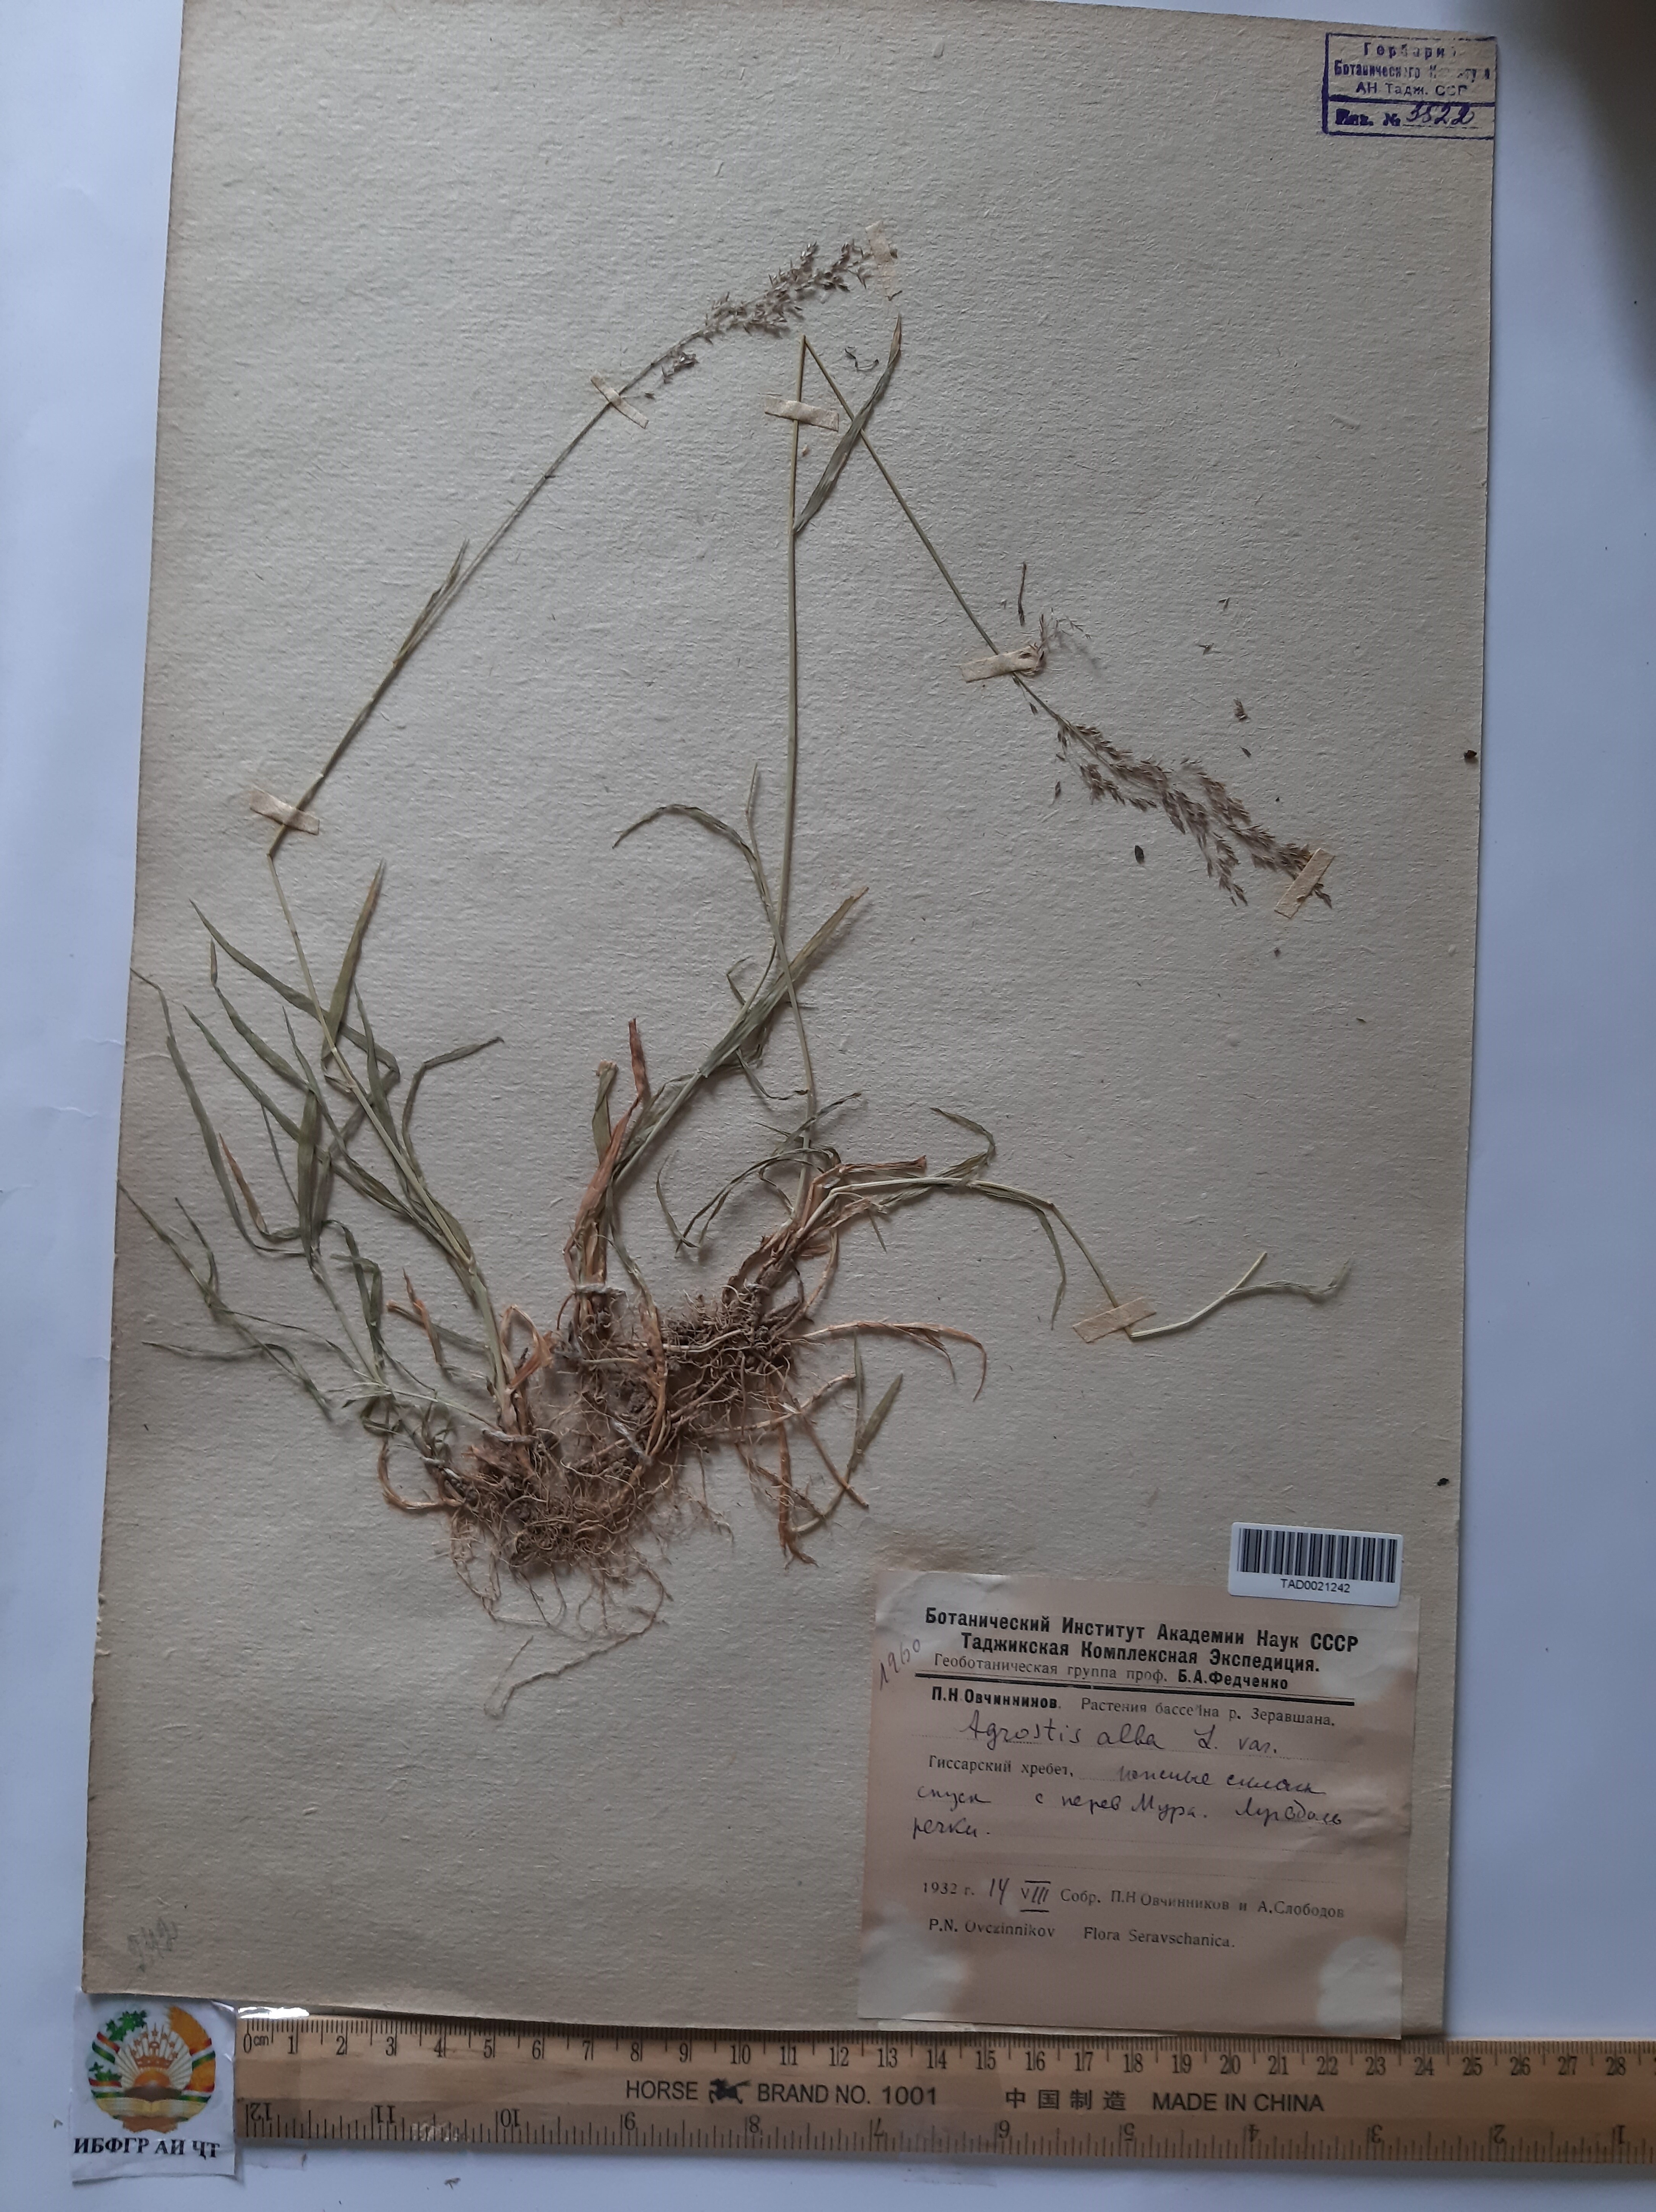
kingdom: Plantae
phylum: Tracheophyta
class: Liliopsida
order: Poales
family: Poaceae
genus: Poa
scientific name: Poa nemoralis
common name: Wood bluegrass
